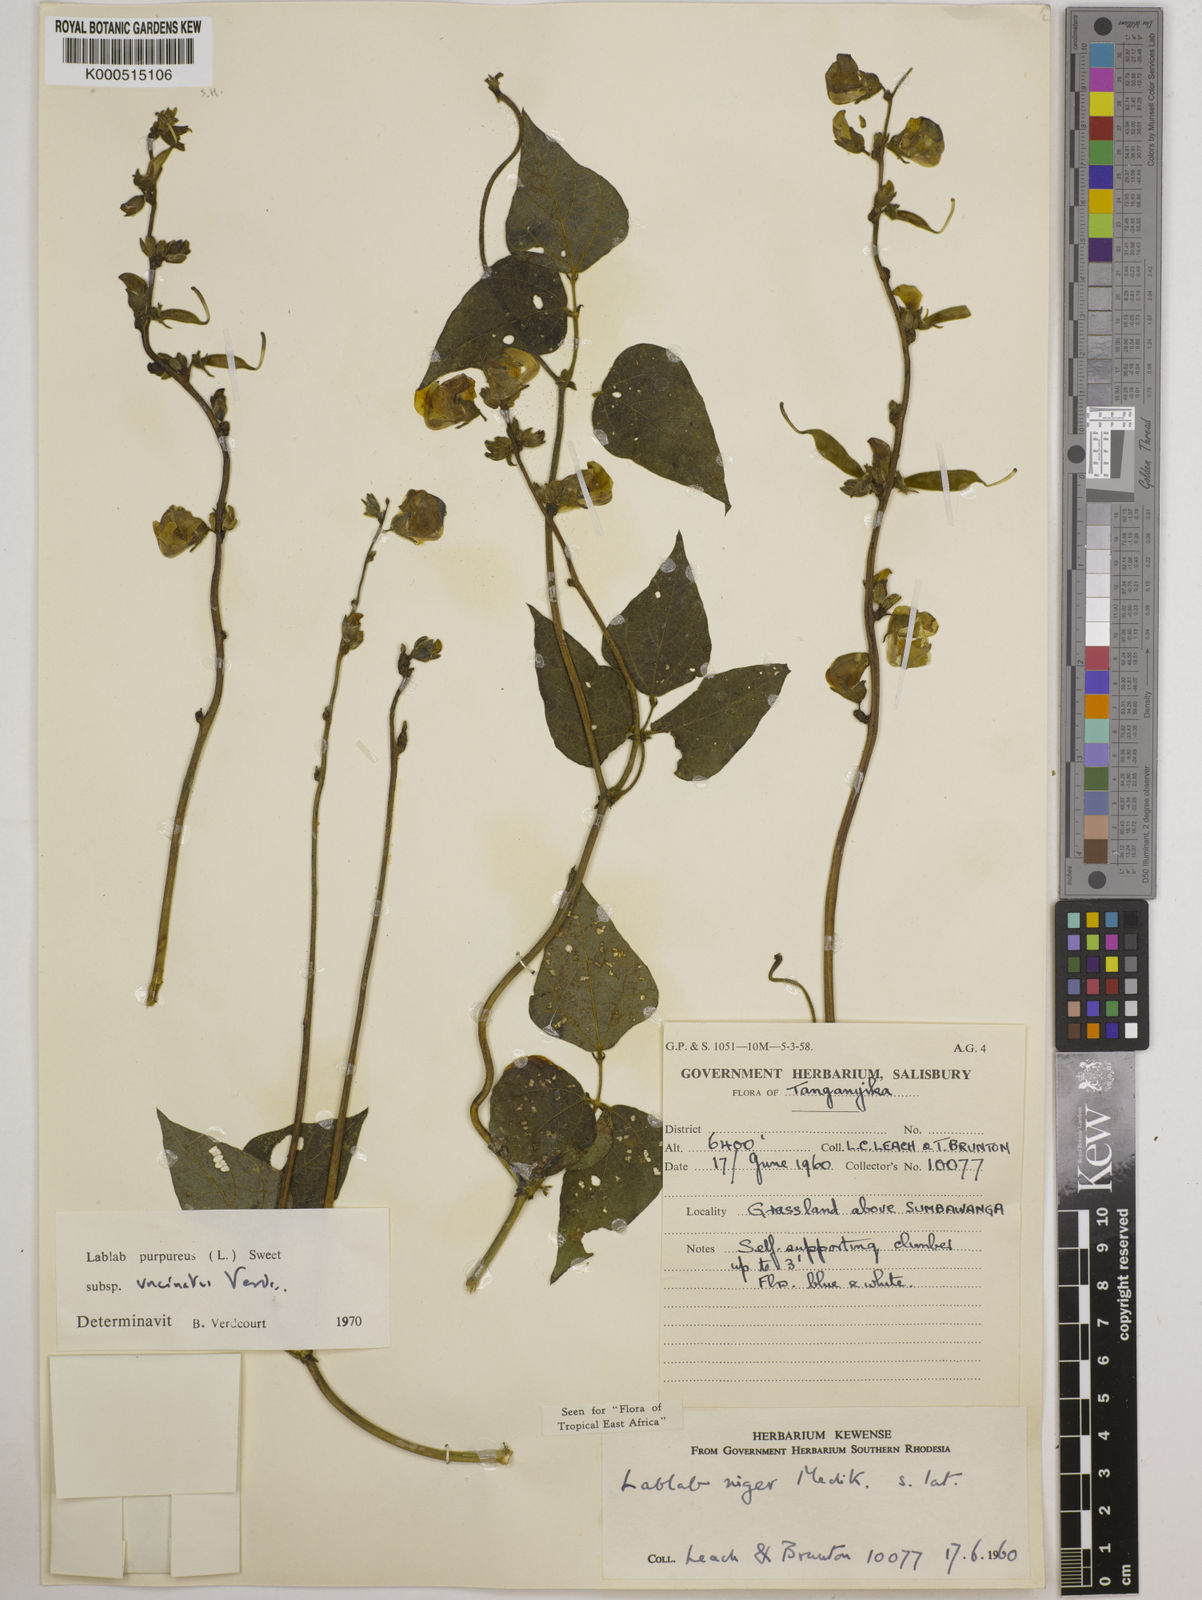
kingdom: Plantae
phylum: Tracheophyta
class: Magnoliopsida
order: Fabales
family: Fabaceae
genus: Lablab
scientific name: Lablab purpureus
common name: Lablab-bean
